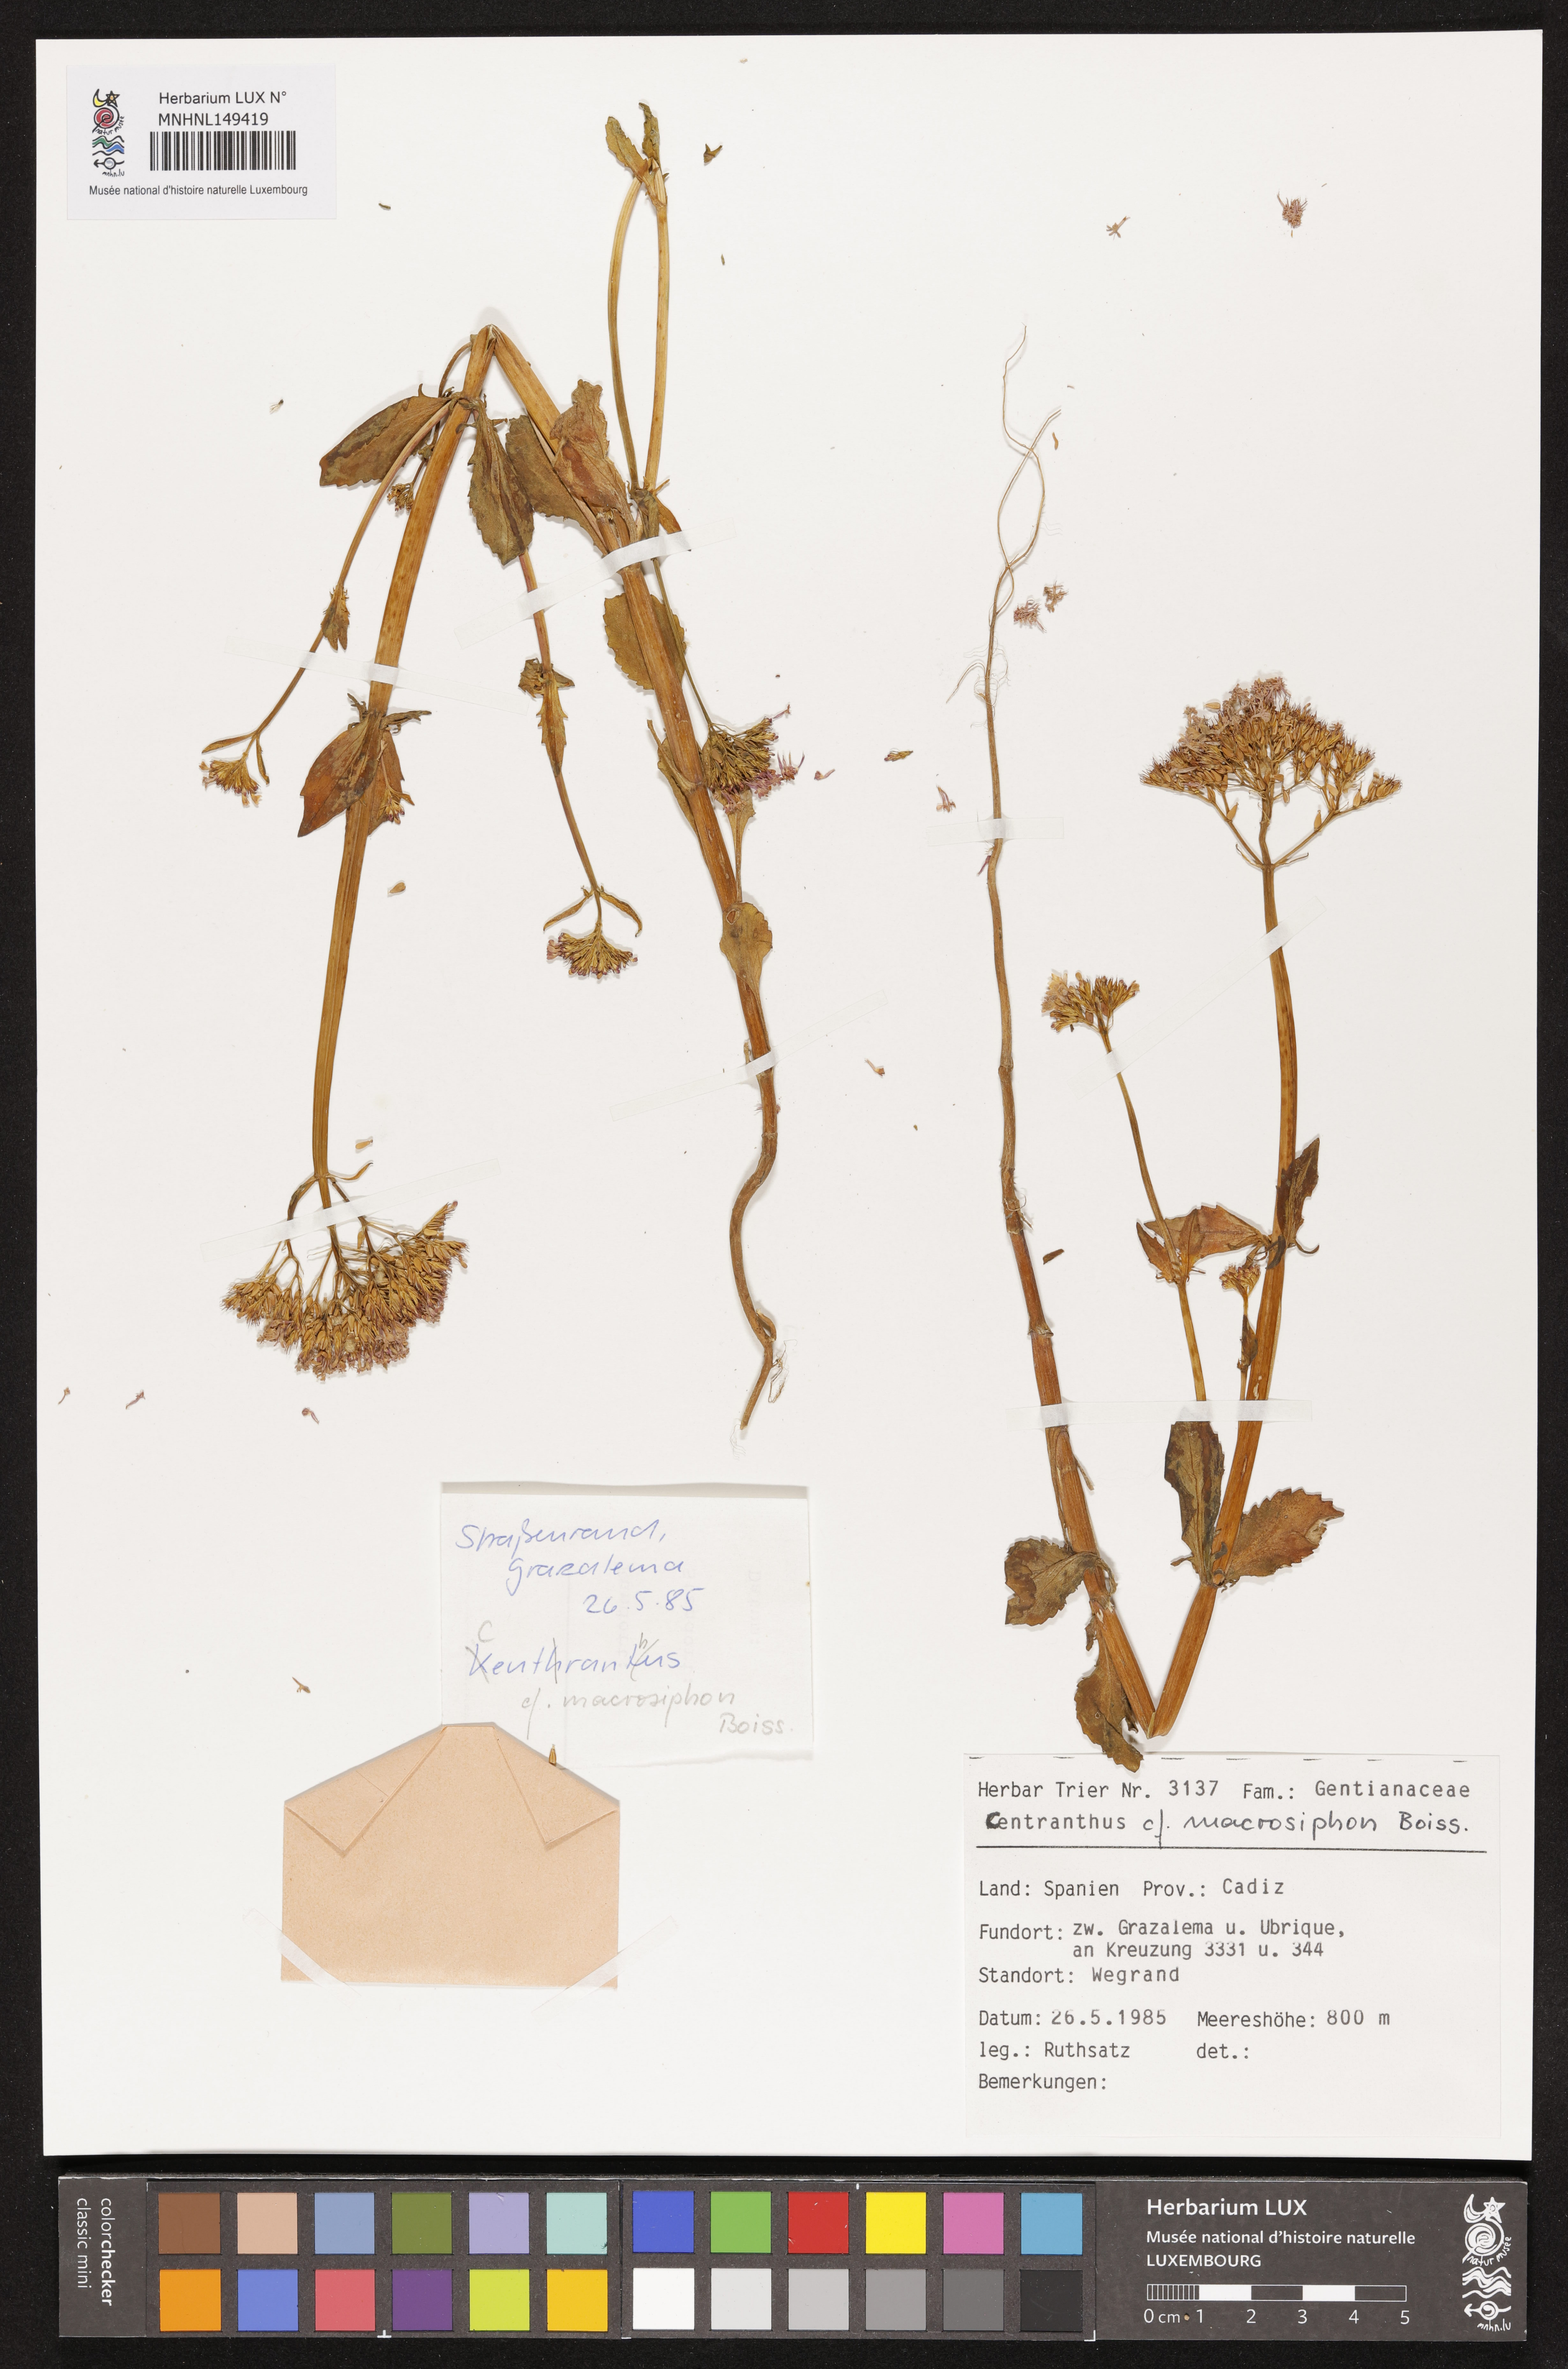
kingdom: Plantae
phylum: Tracheophyta
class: Magnoliopsida
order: Dipsacales
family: Caprifoliaceae
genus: Centranthus
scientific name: Centranthus macrosiphon
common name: Spanish-valerian
